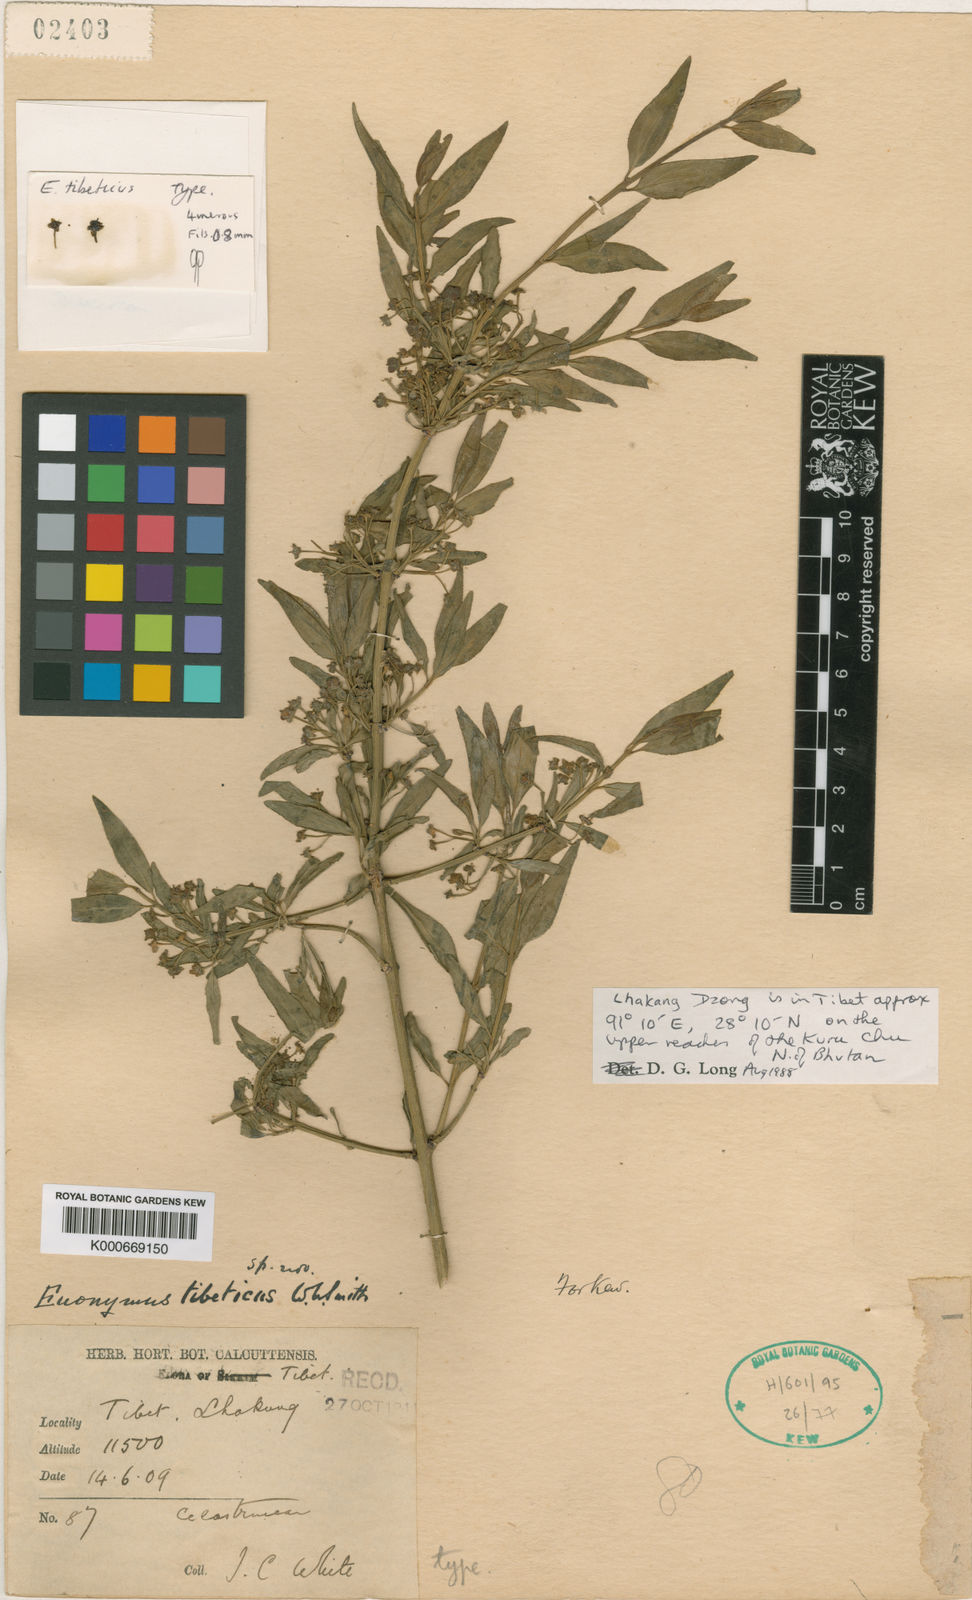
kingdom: Plantae
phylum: Tracheophyta
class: Magnoliopsida
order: Celastrales
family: Celastraceae
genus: Euonymus
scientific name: Euonymus tibeticus
